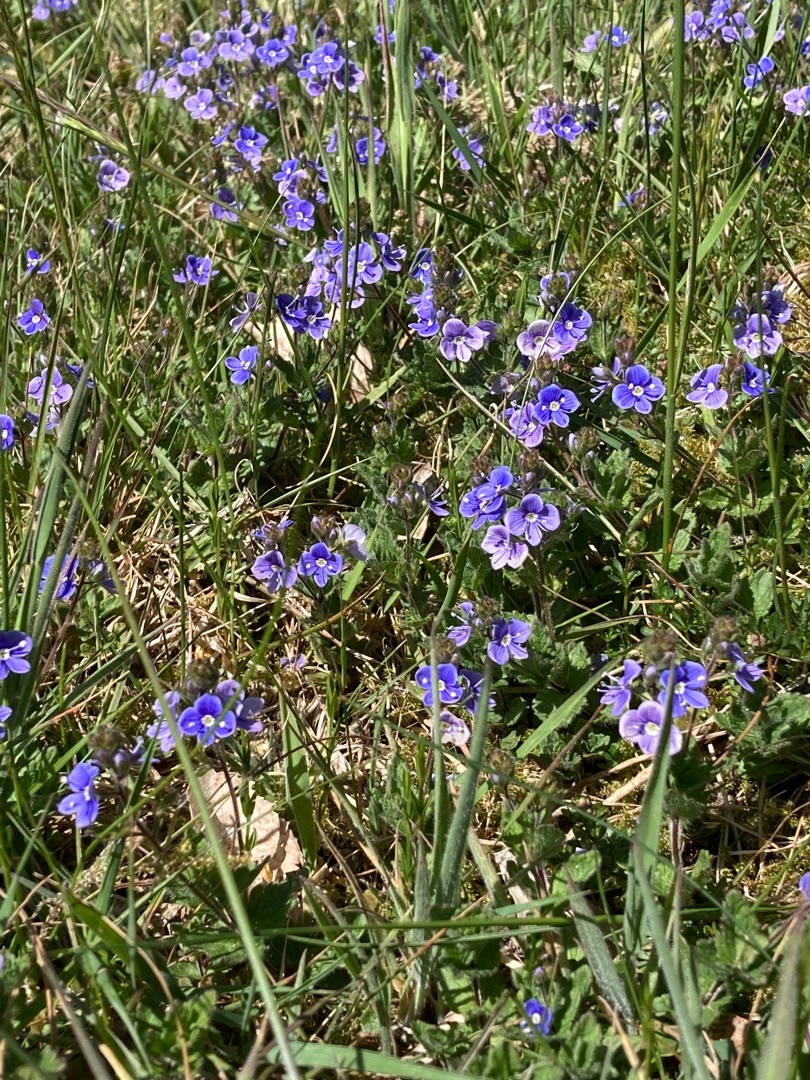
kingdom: Plantae
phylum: Tracheophyta
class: Magnoliopsida
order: Lamiales
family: Plantaginaceae
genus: Veronica
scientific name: Veronica chamaedrys
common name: Tveskægget ærenpris
